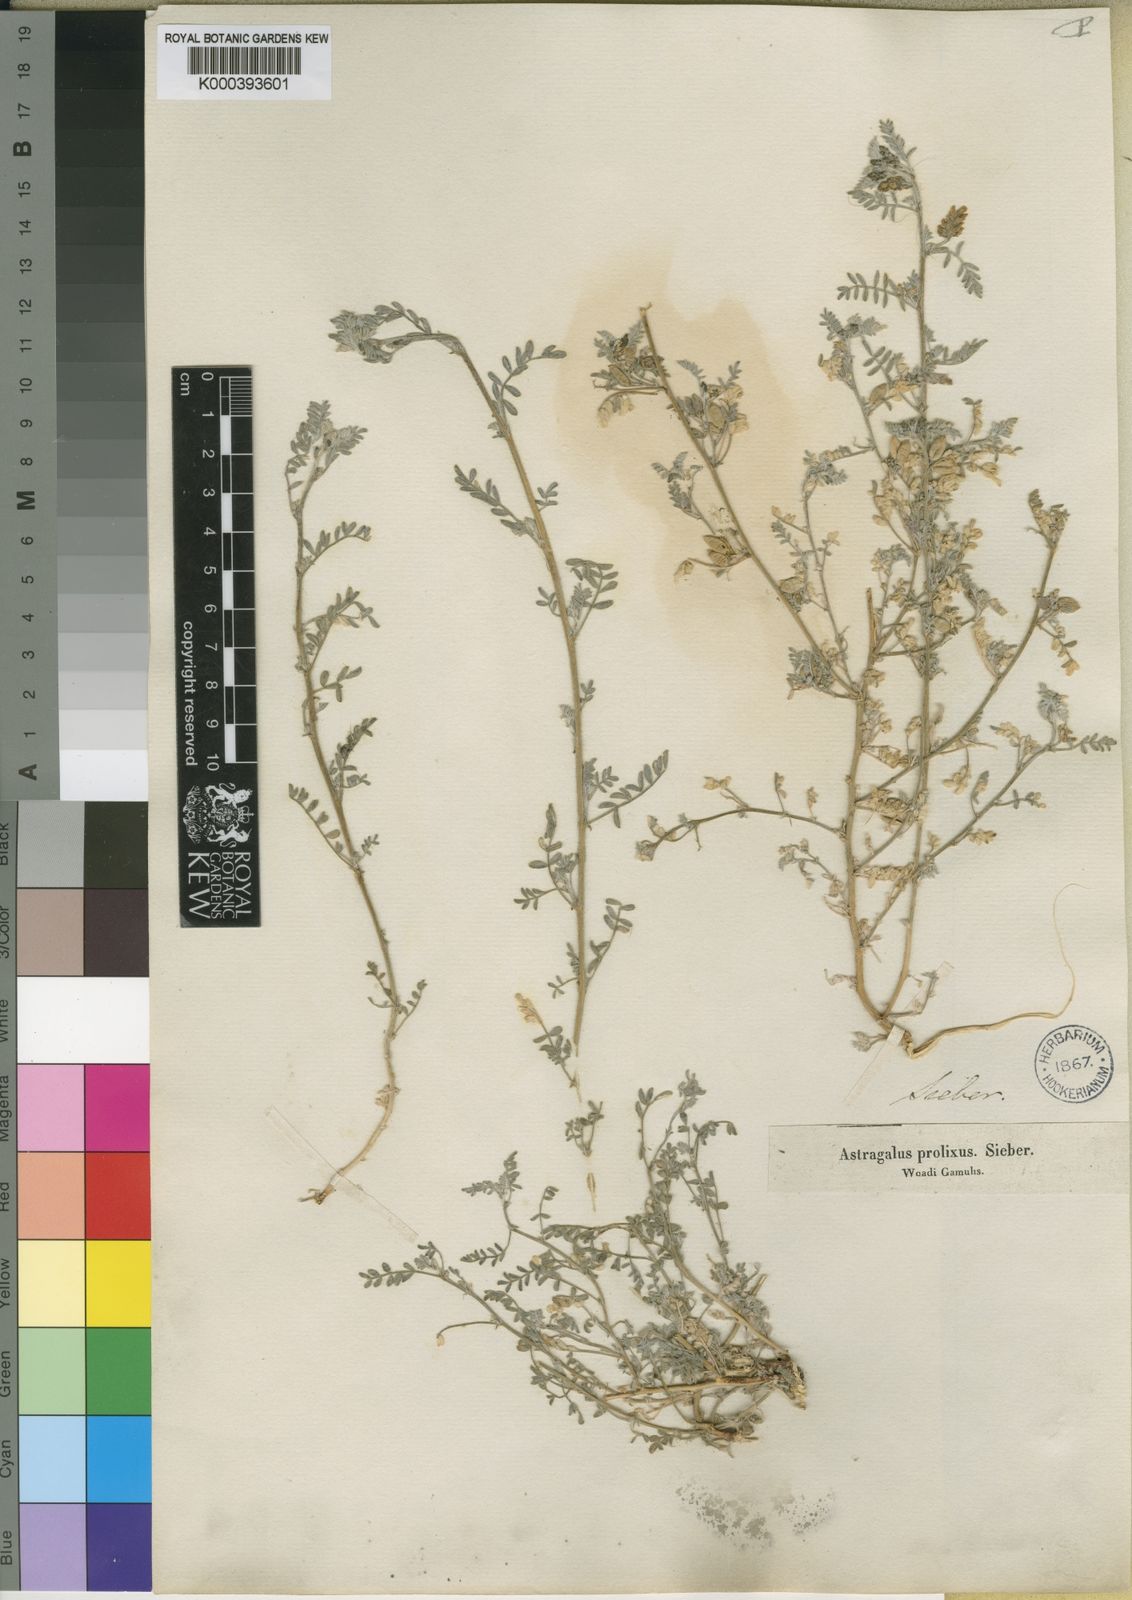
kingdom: Plantae
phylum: Tracheophyta
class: Magnoliopsida
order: Fabales
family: Fabaceae
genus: Astragalus
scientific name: Astragalus
